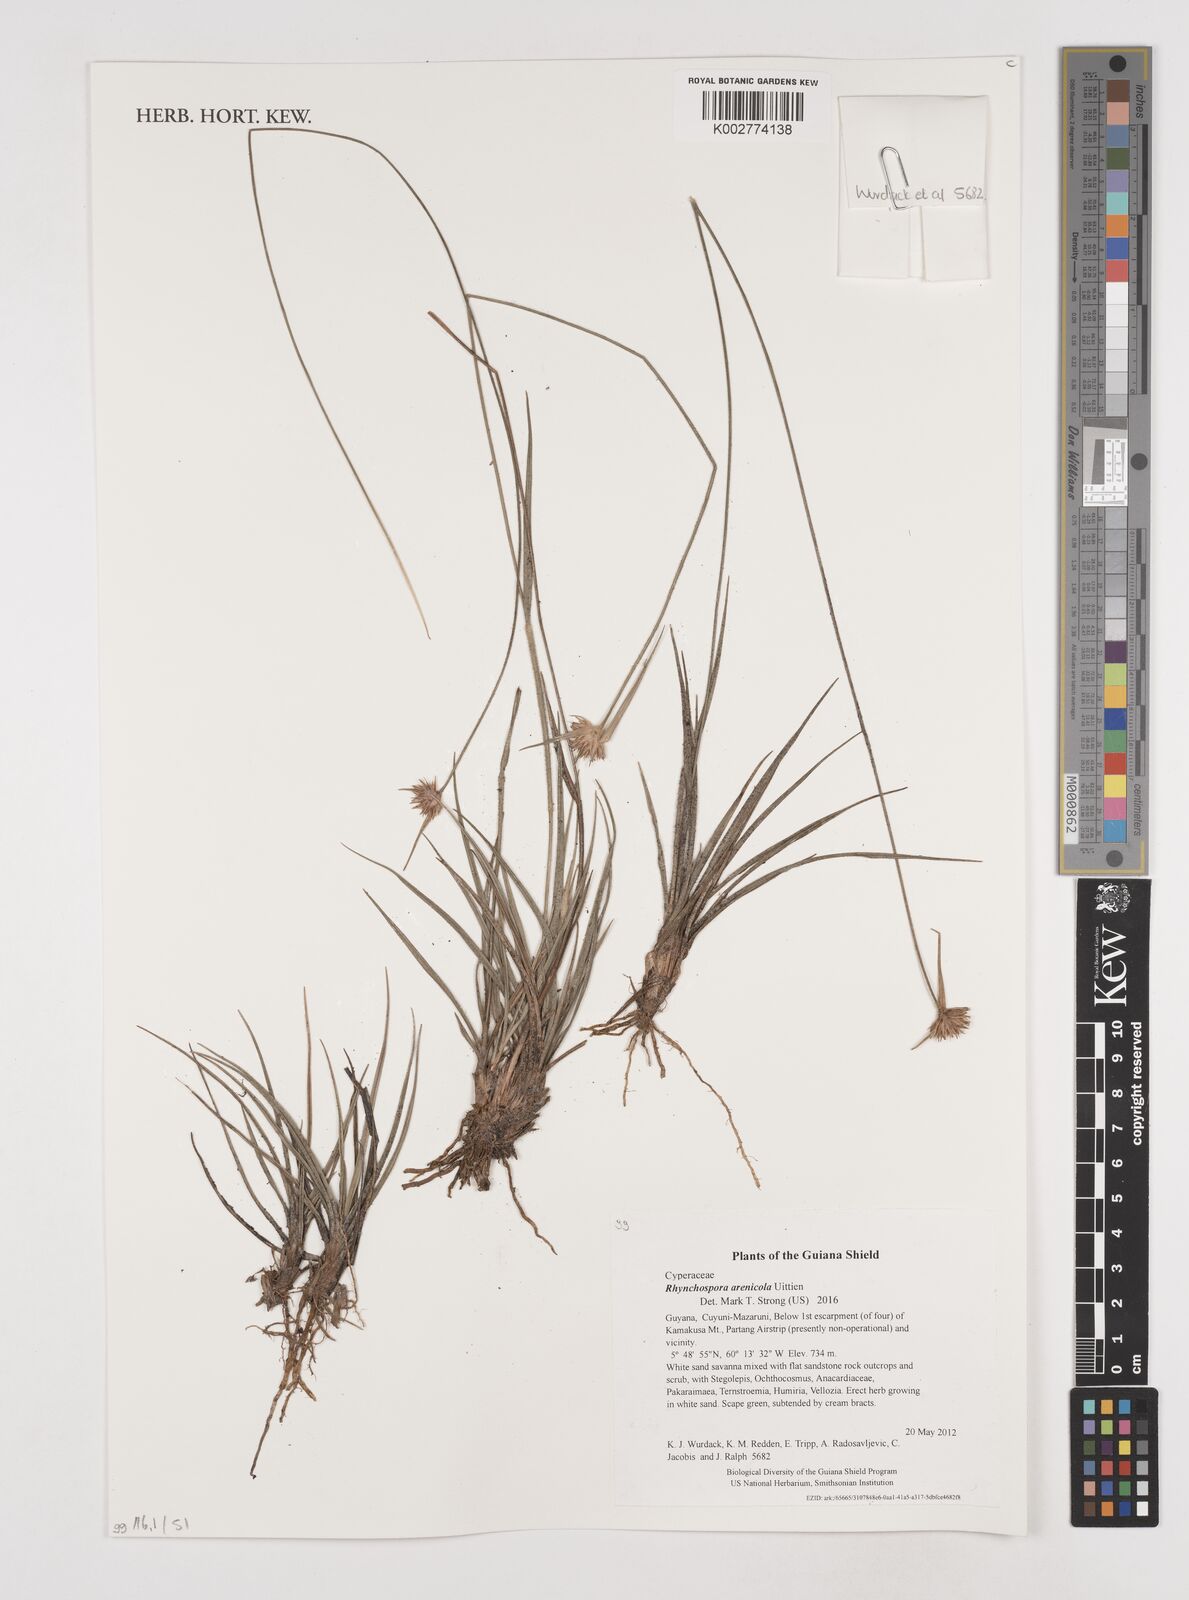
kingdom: Plantae
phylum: Tracheophyta
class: Liliopsida
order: Poales
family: Cyperaceae
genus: Rhynchospora
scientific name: Rhynchospora arenicola
